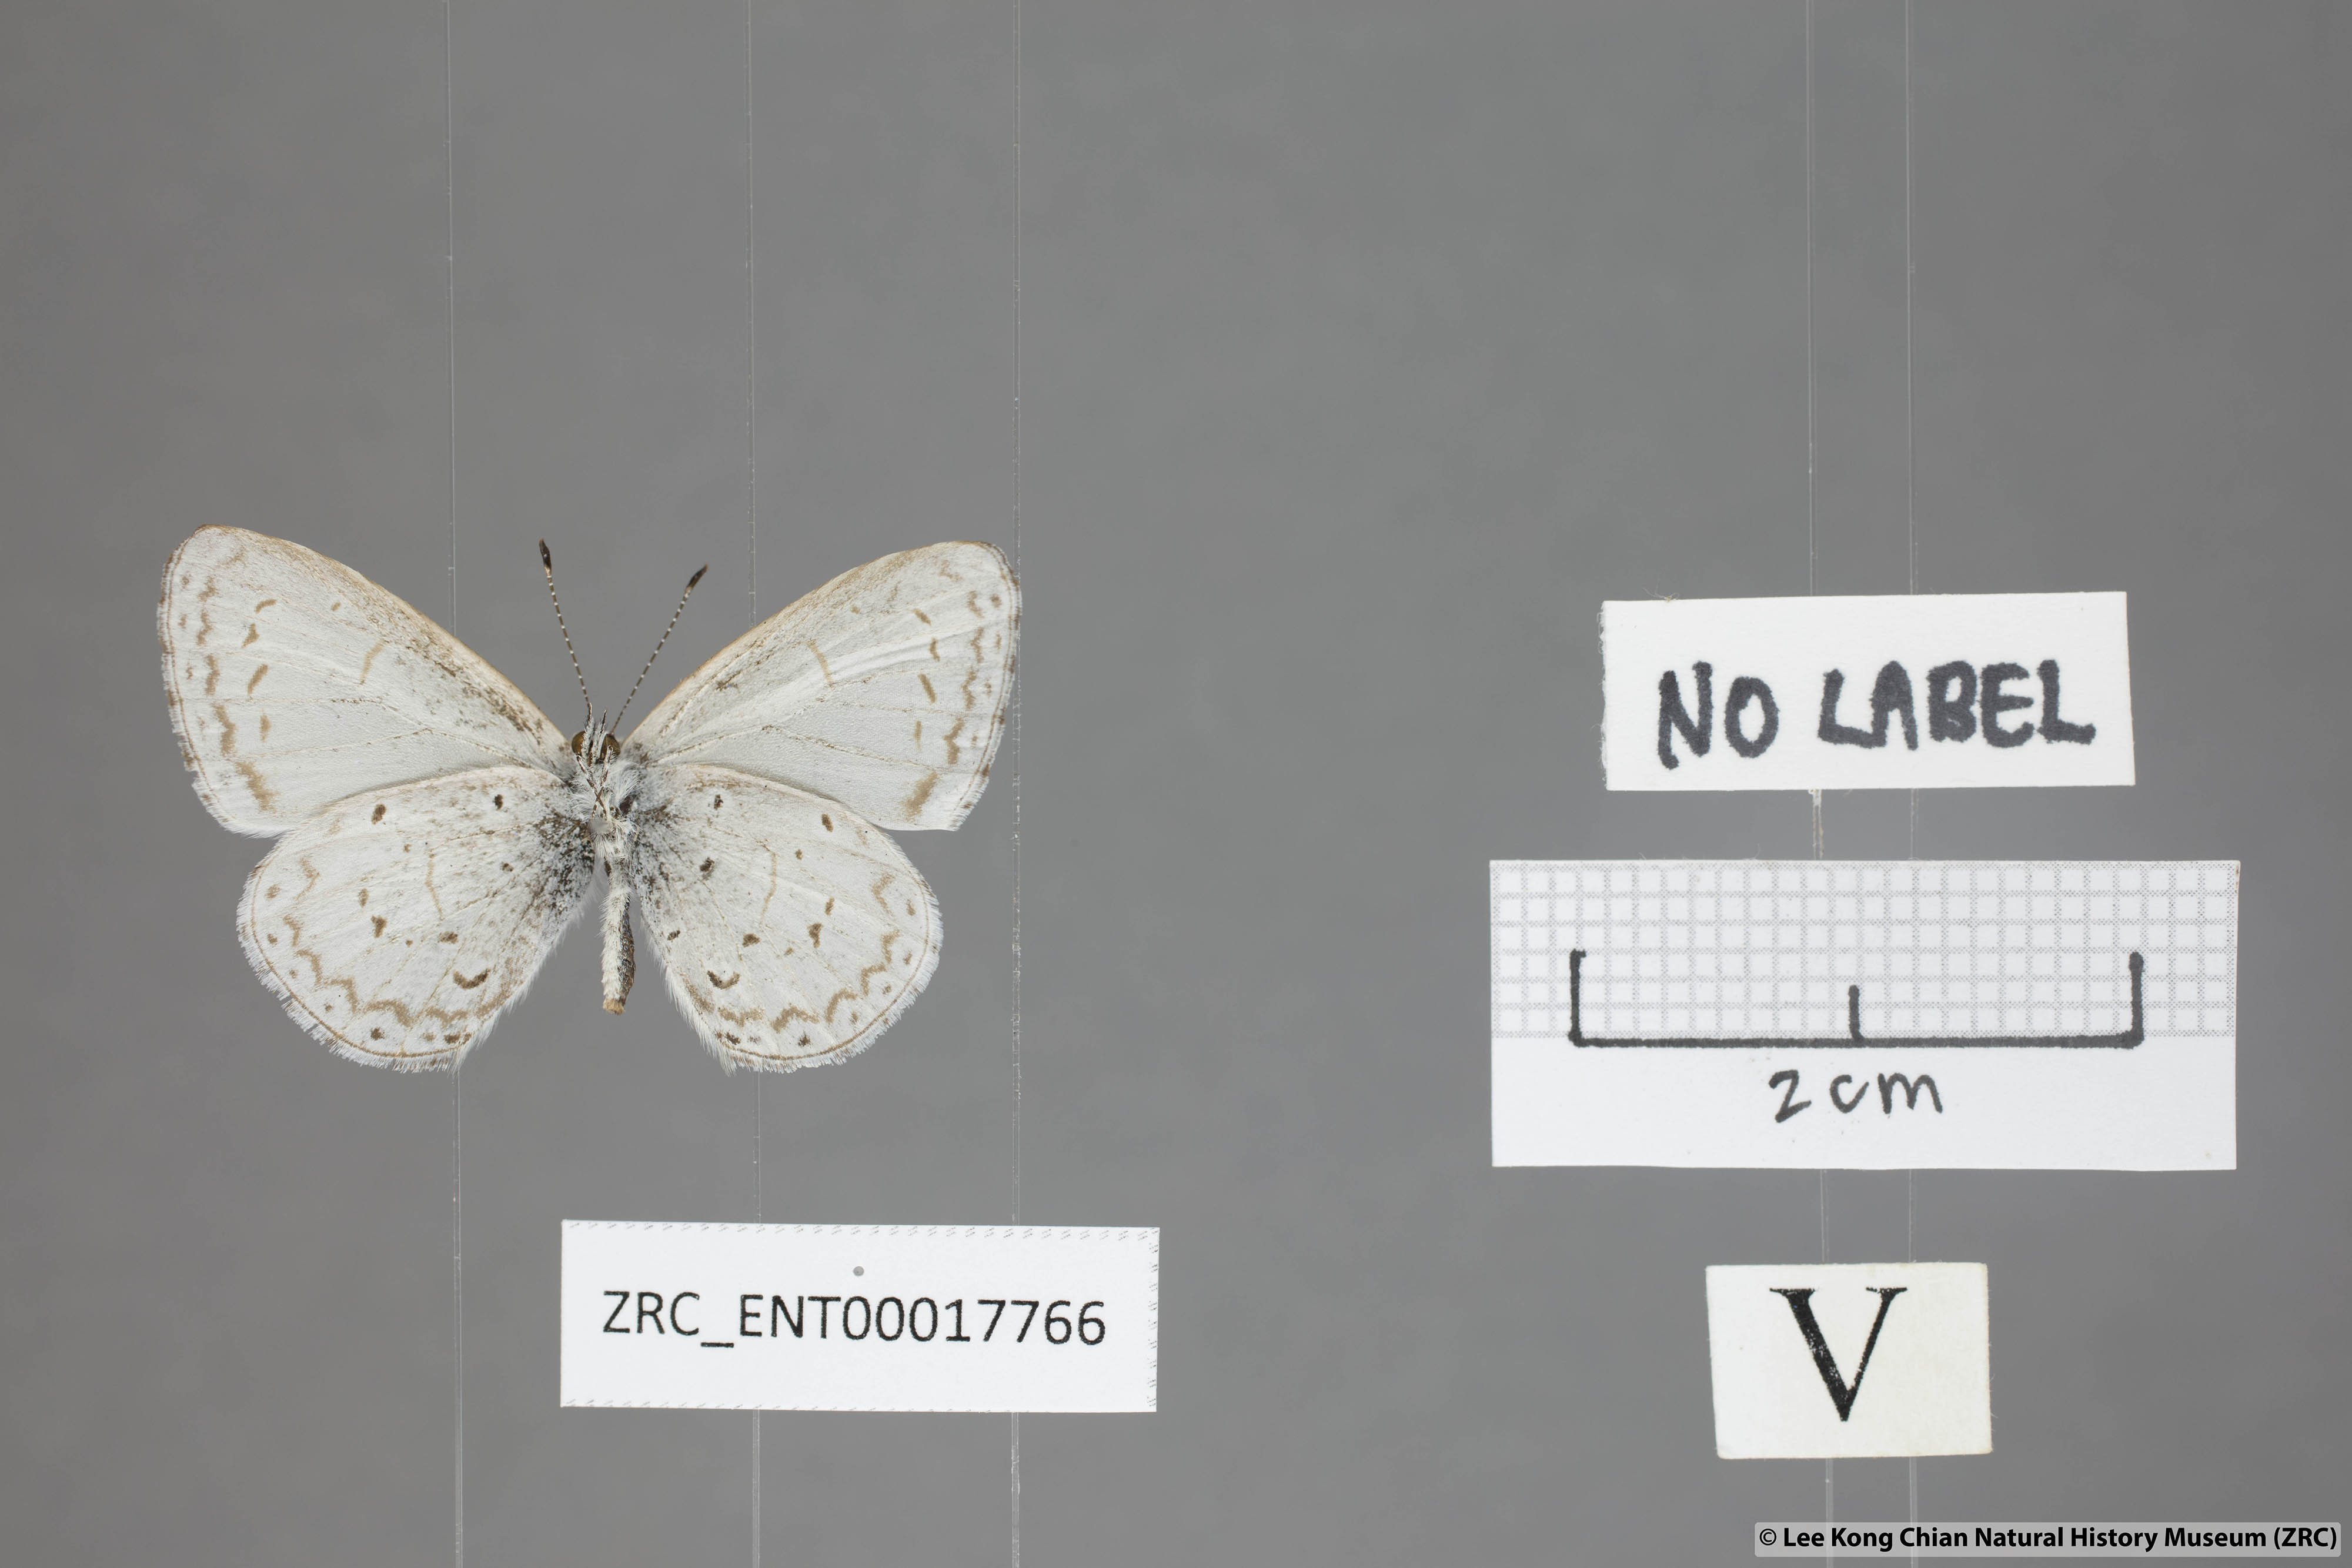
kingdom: Animalia
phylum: Arthropoda
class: Insecta
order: Lepidoptera
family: Lycaenidae
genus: Udara
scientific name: Udara dilectus
